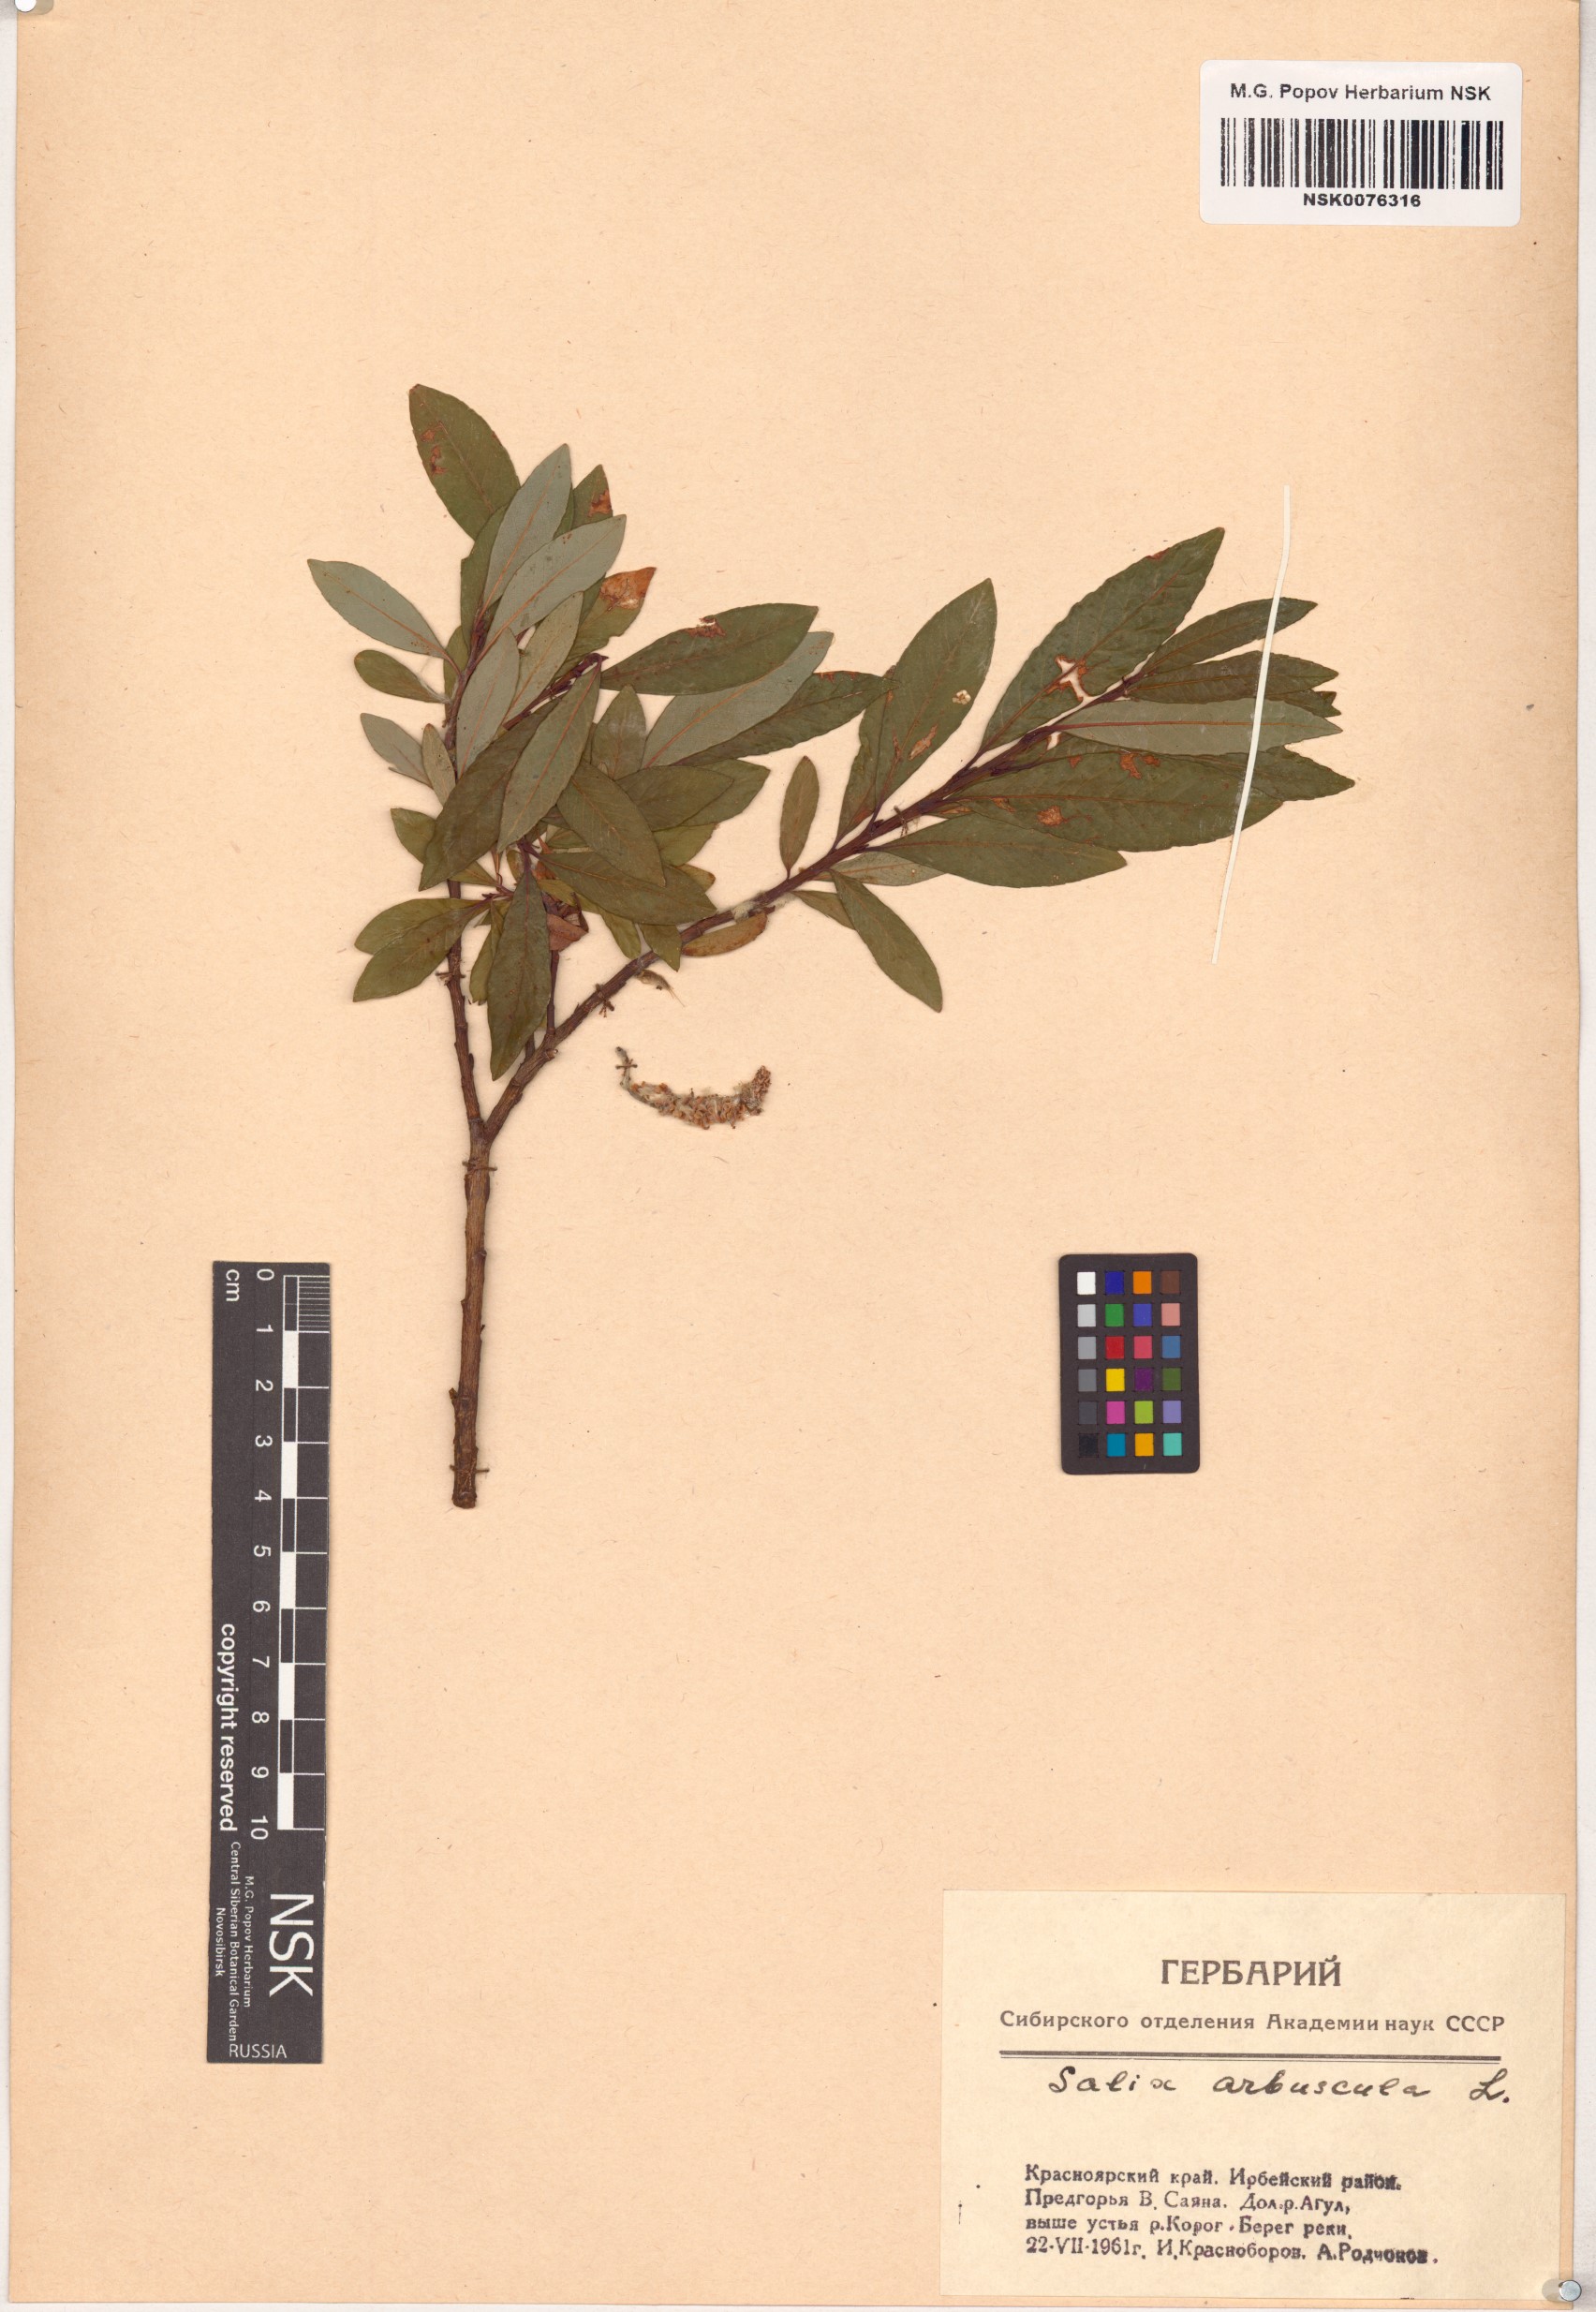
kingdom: Plantae
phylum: Tracheophyta
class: Magnoliopsida
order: Malpighiales
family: Salicaceae
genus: Salix
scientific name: Salix arbuscula
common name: Mountain willow
